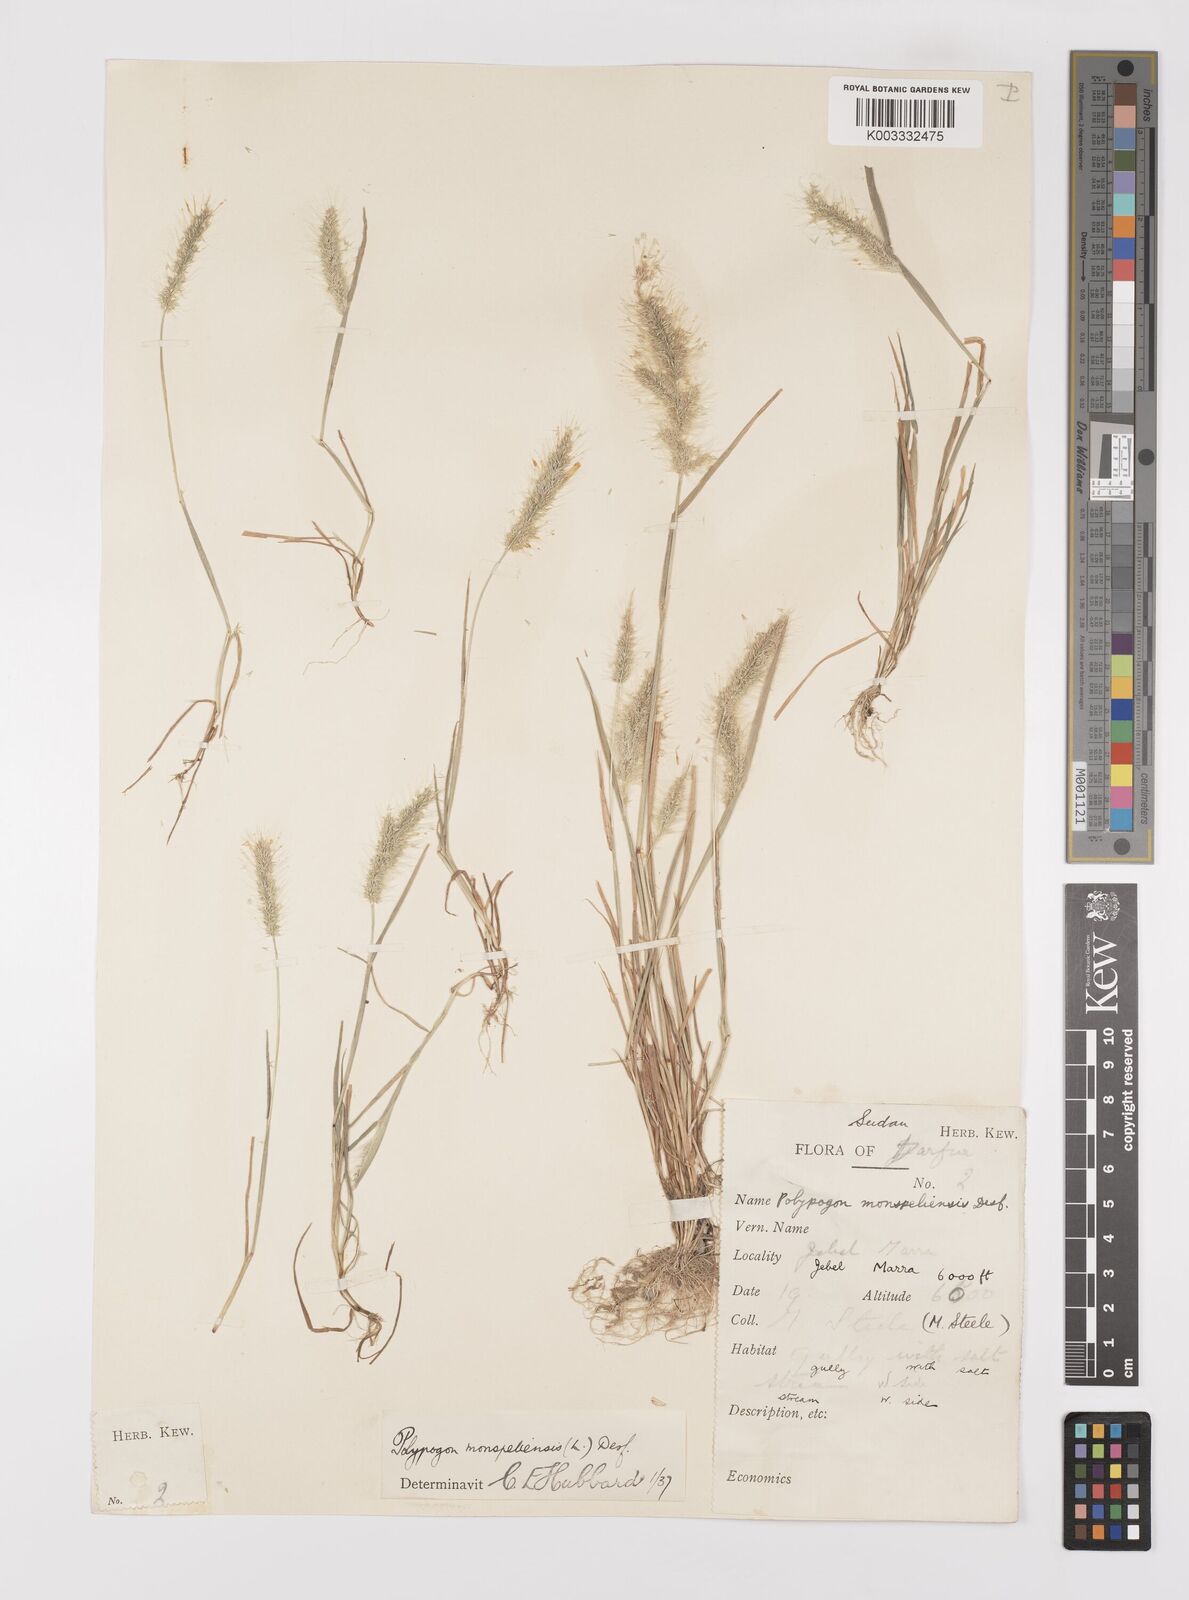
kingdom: Plantae
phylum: Tracheophyta
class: Liliopsida
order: Poales
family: Poaceae
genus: Polypogon
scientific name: Polypogon monspeliensis
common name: Annual rabbitsfoot grass
